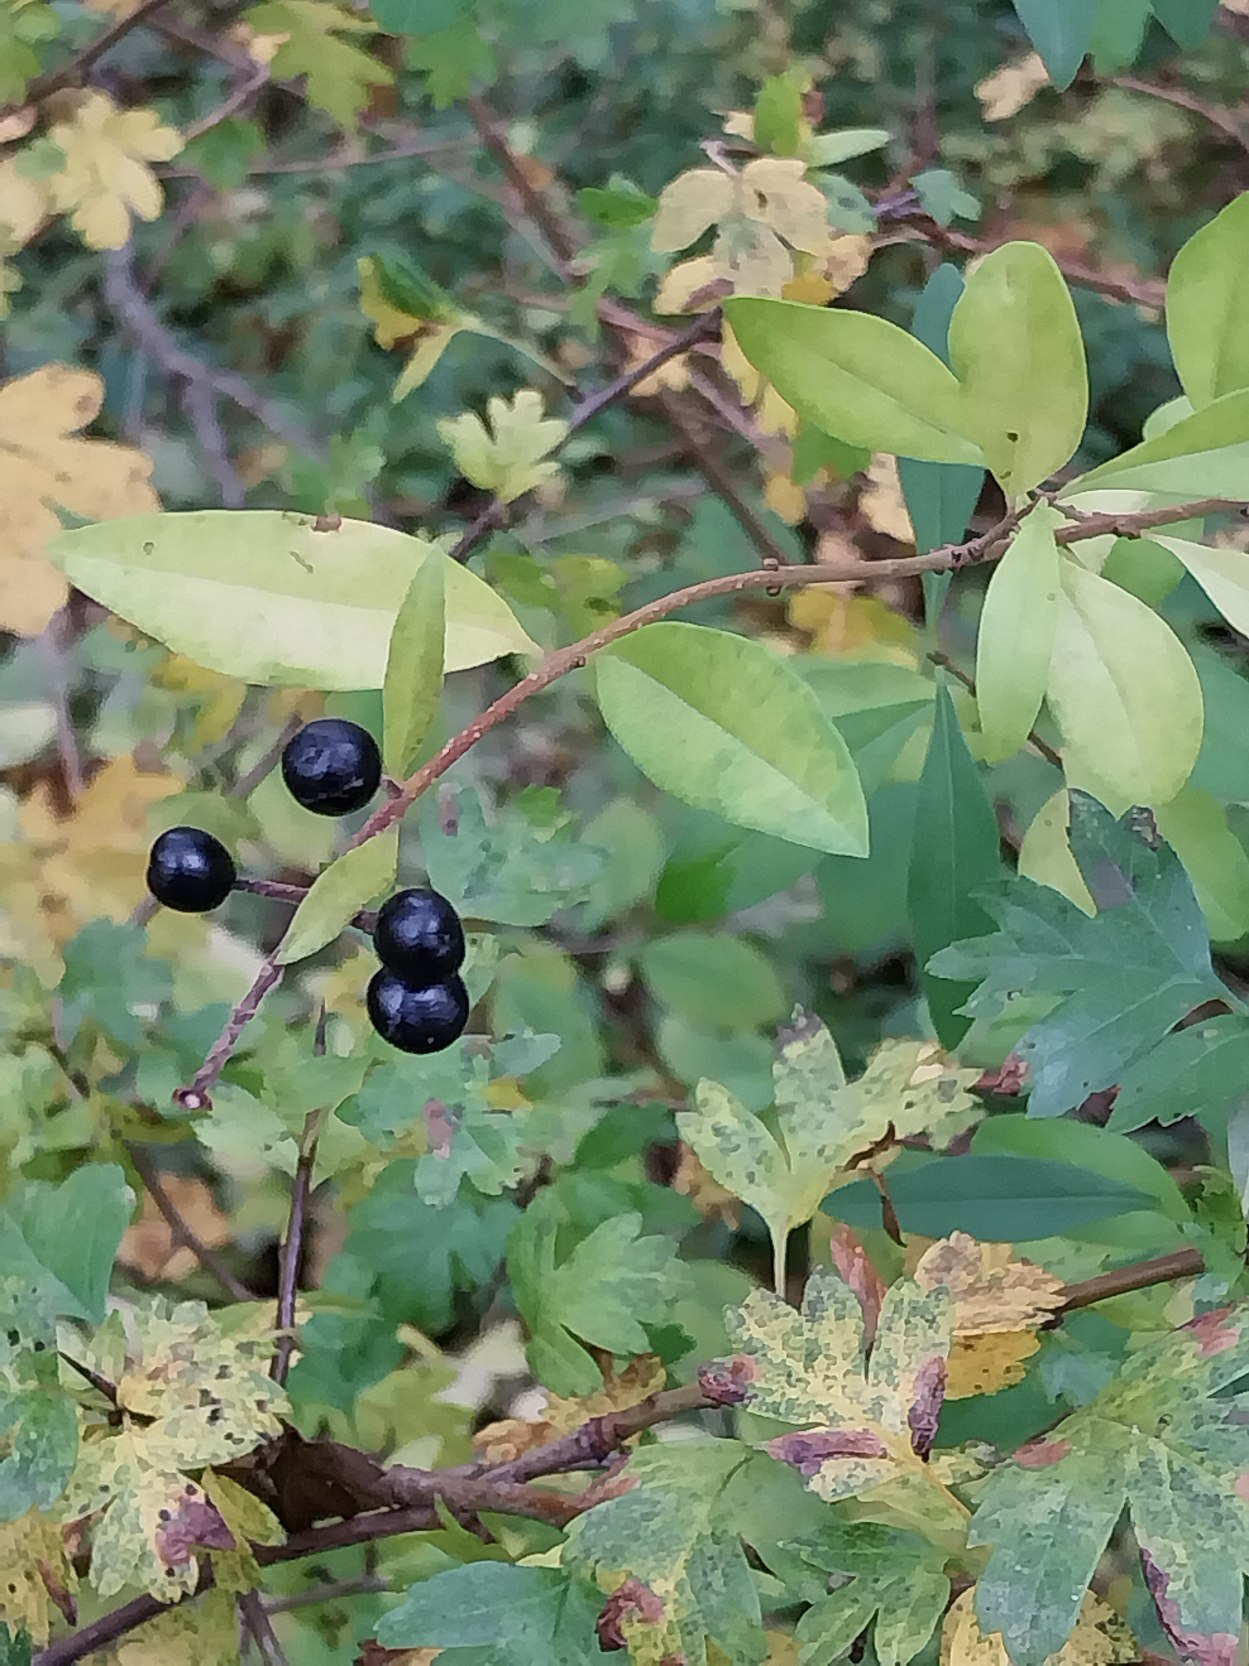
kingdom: Plantae
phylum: Tracheophyta
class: Magnoliopsida
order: Lamiales
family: Oleaceae
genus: Ligustrum
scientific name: Ligustrum vulgare
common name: Liguster
